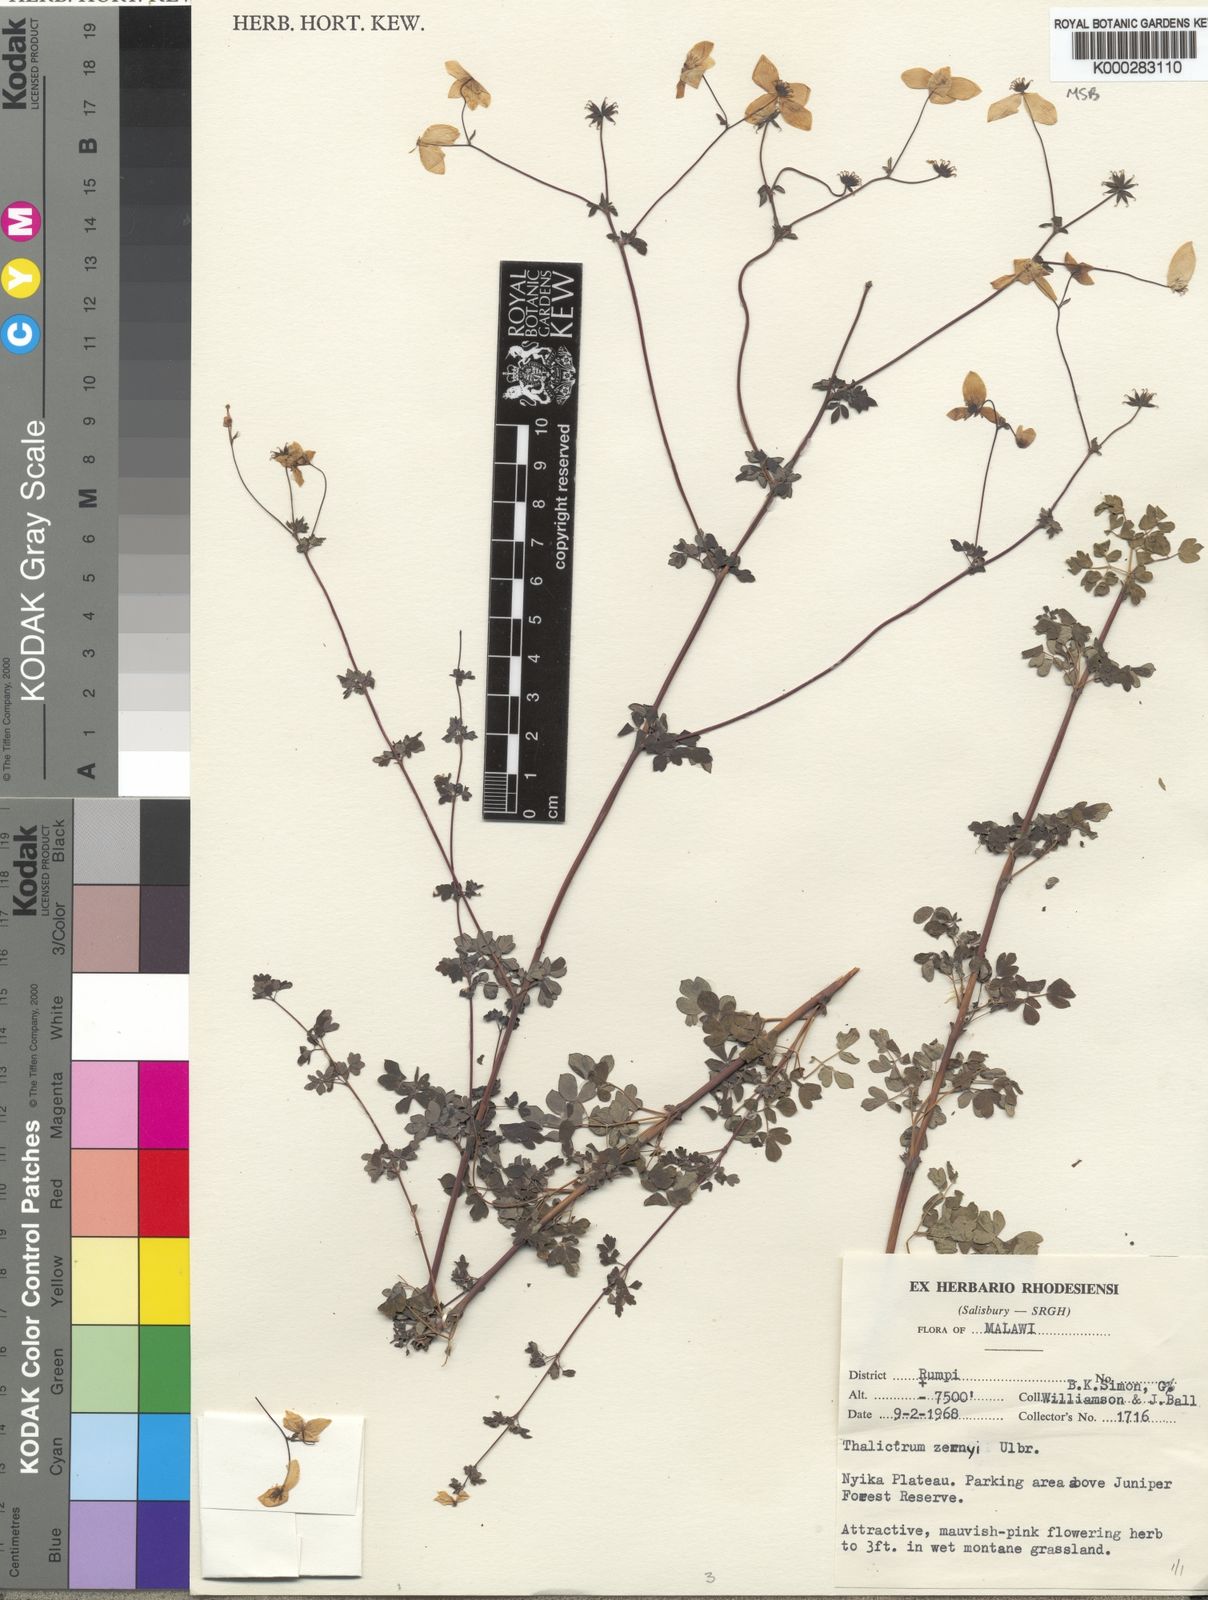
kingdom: Plantae
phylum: Tracheophyta
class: Magnoliopsida
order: Ranunculales
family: Ranunculaceae
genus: Thalictrum
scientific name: Thalictrum zernyi
